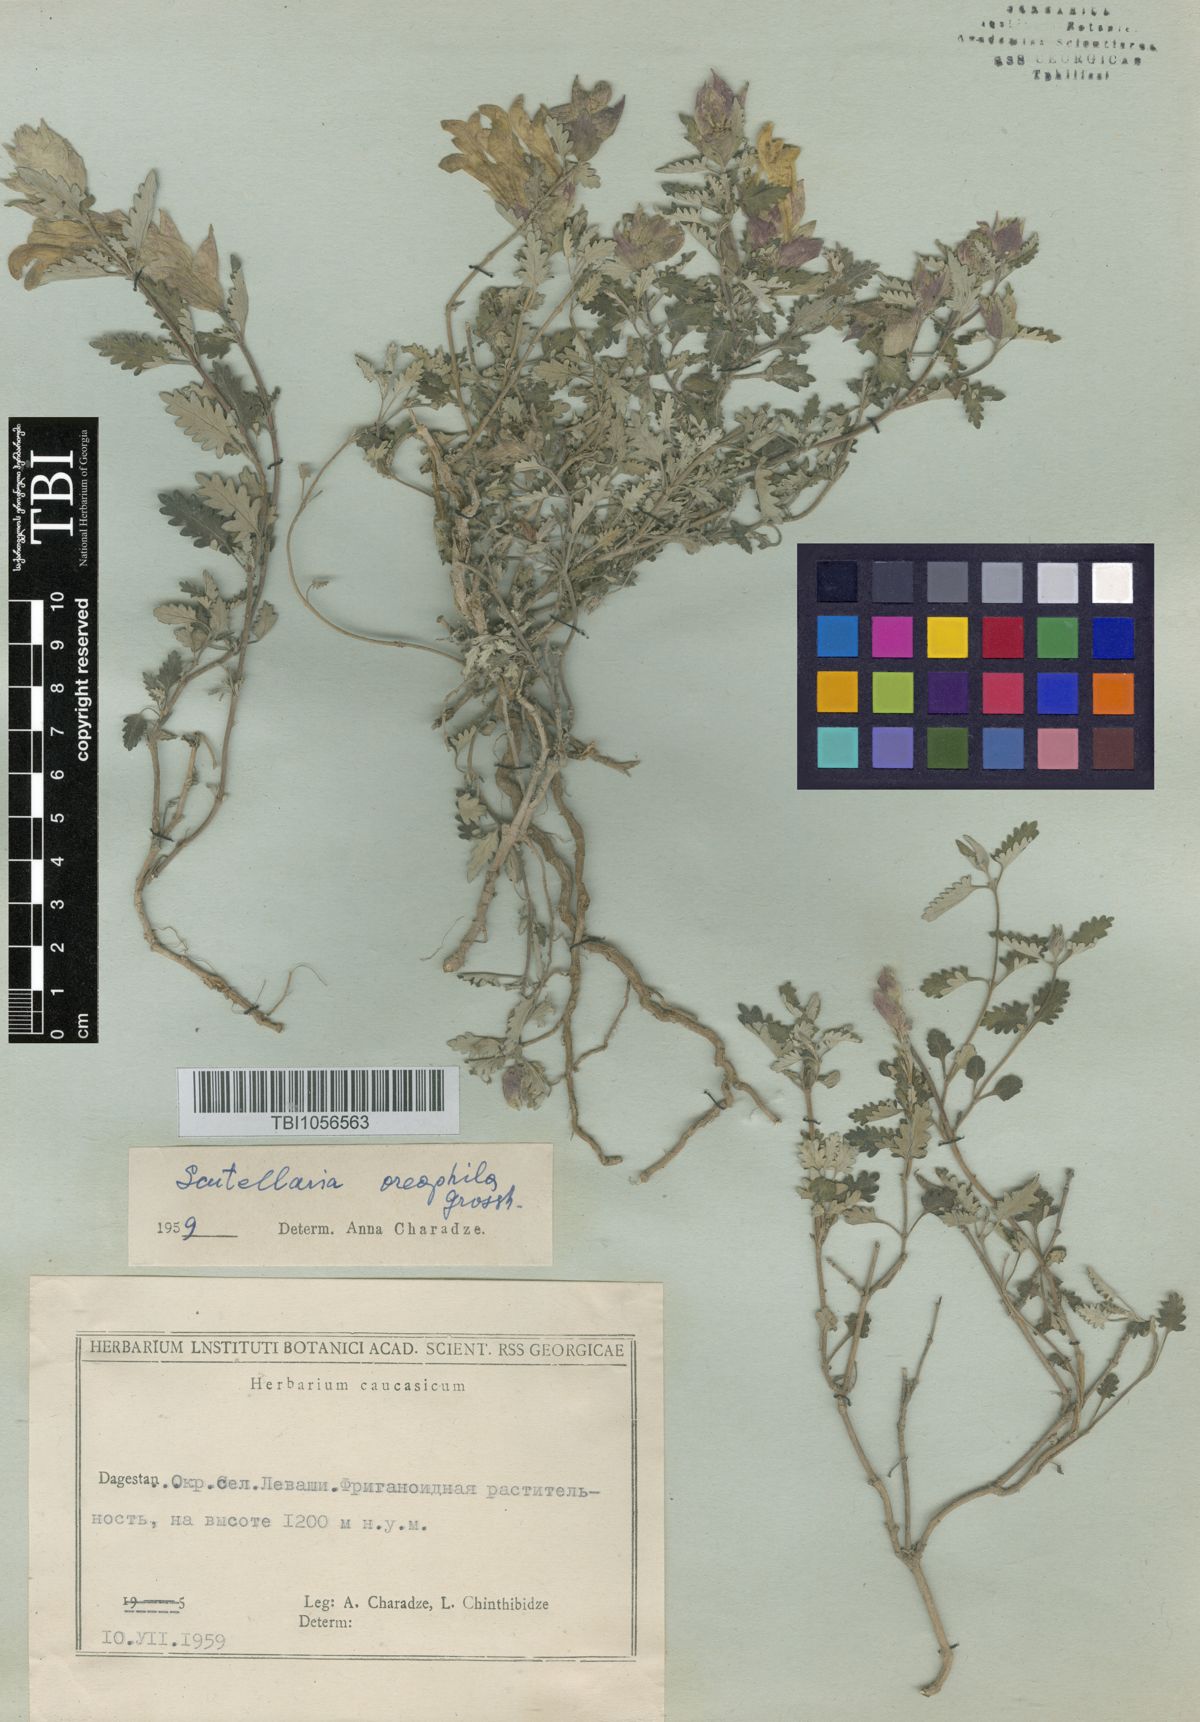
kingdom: Plantae
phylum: Tracheophyta
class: Magnoliopsida
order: Lamiales
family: Lamiaceae
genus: Scutellaria
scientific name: Scutellaria oreophila
